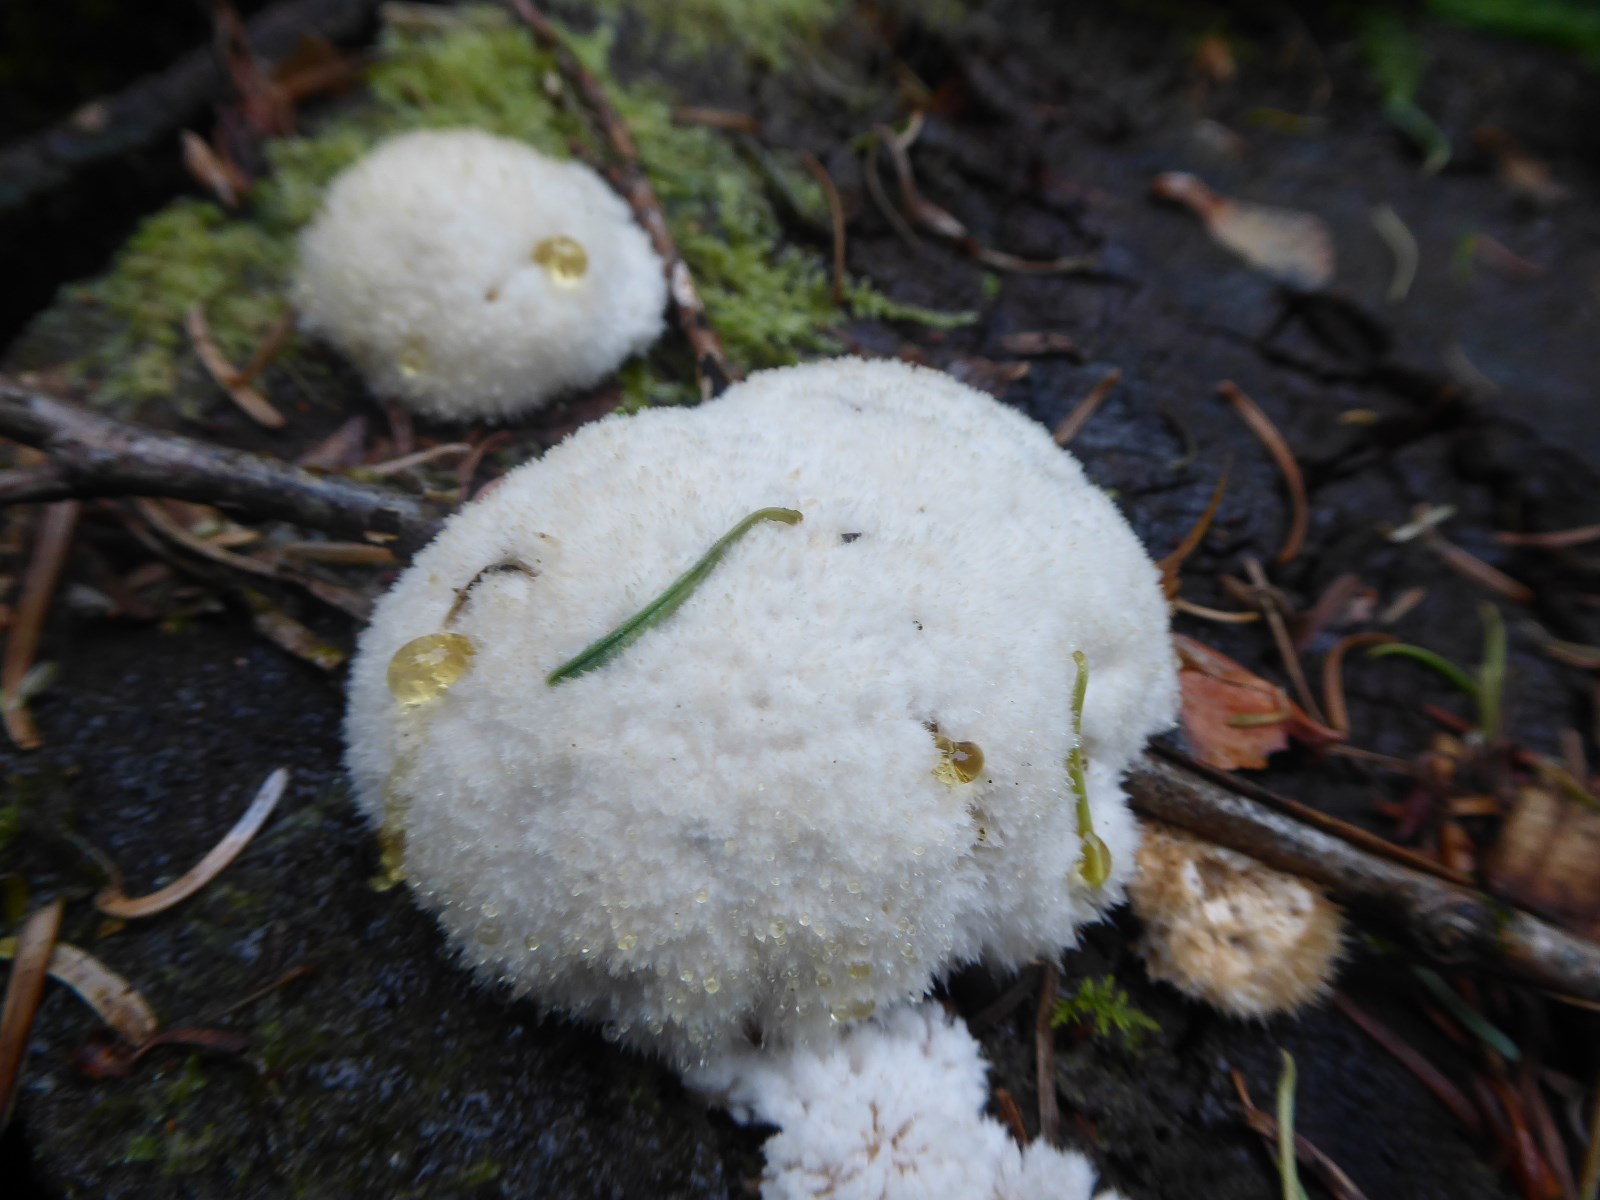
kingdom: Fungi
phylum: Basidiomycota
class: Agaricomycetes
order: Polyporales
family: Dacryobolaceae
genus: Postia
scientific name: Postia ptychogaster
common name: støvende kødporesvamp
